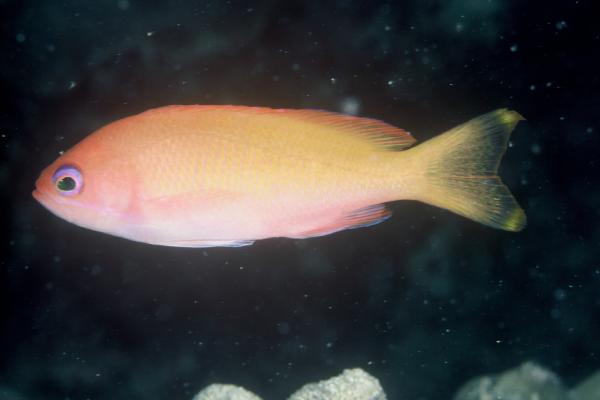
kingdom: Animalia
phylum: Chordata
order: Perciformes
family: Serranidae
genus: Pseudanthias
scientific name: Pseudanthias townsendi
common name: Townsend's anthias
